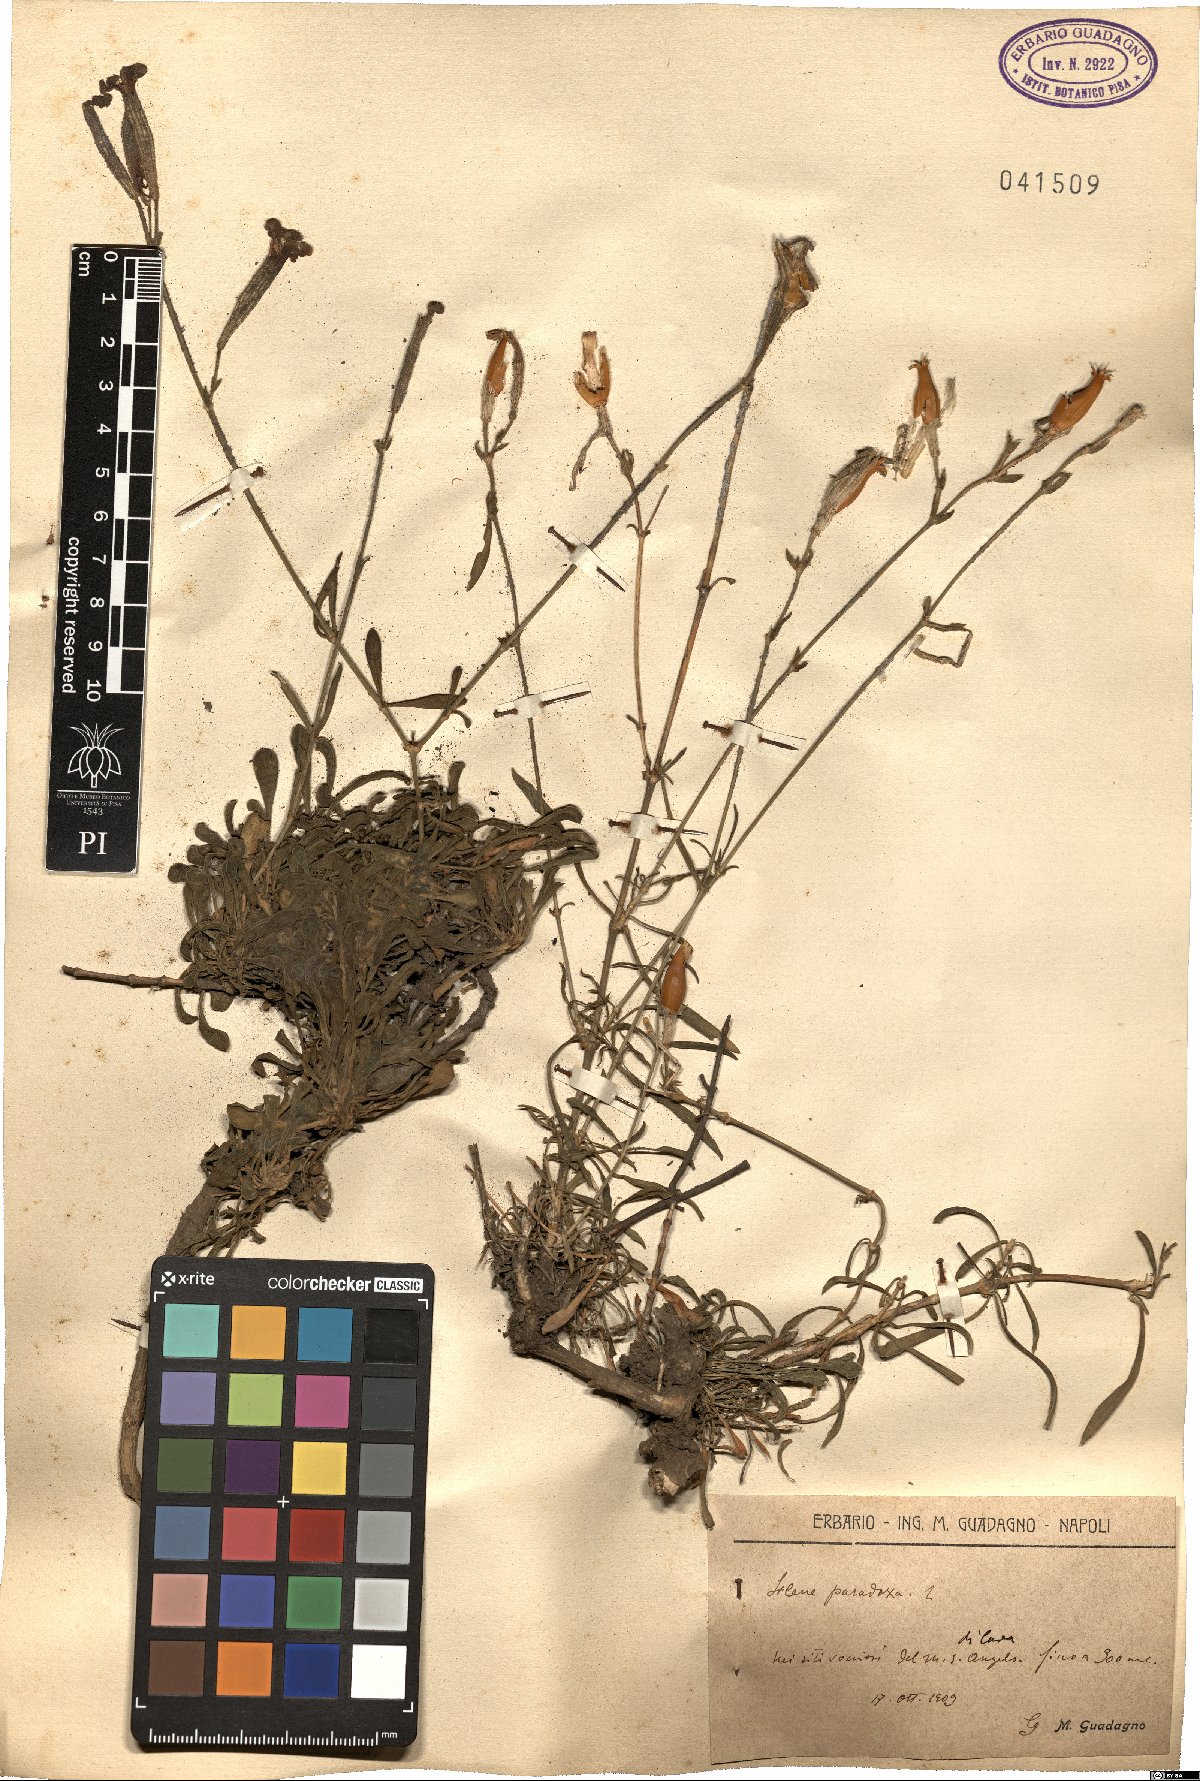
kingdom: Plantae
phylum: Tracheophyta
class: Magnoliopsida
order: Caryophyllales
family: Caryophyllaceae
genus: Silene
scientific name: Silene paradoxa
